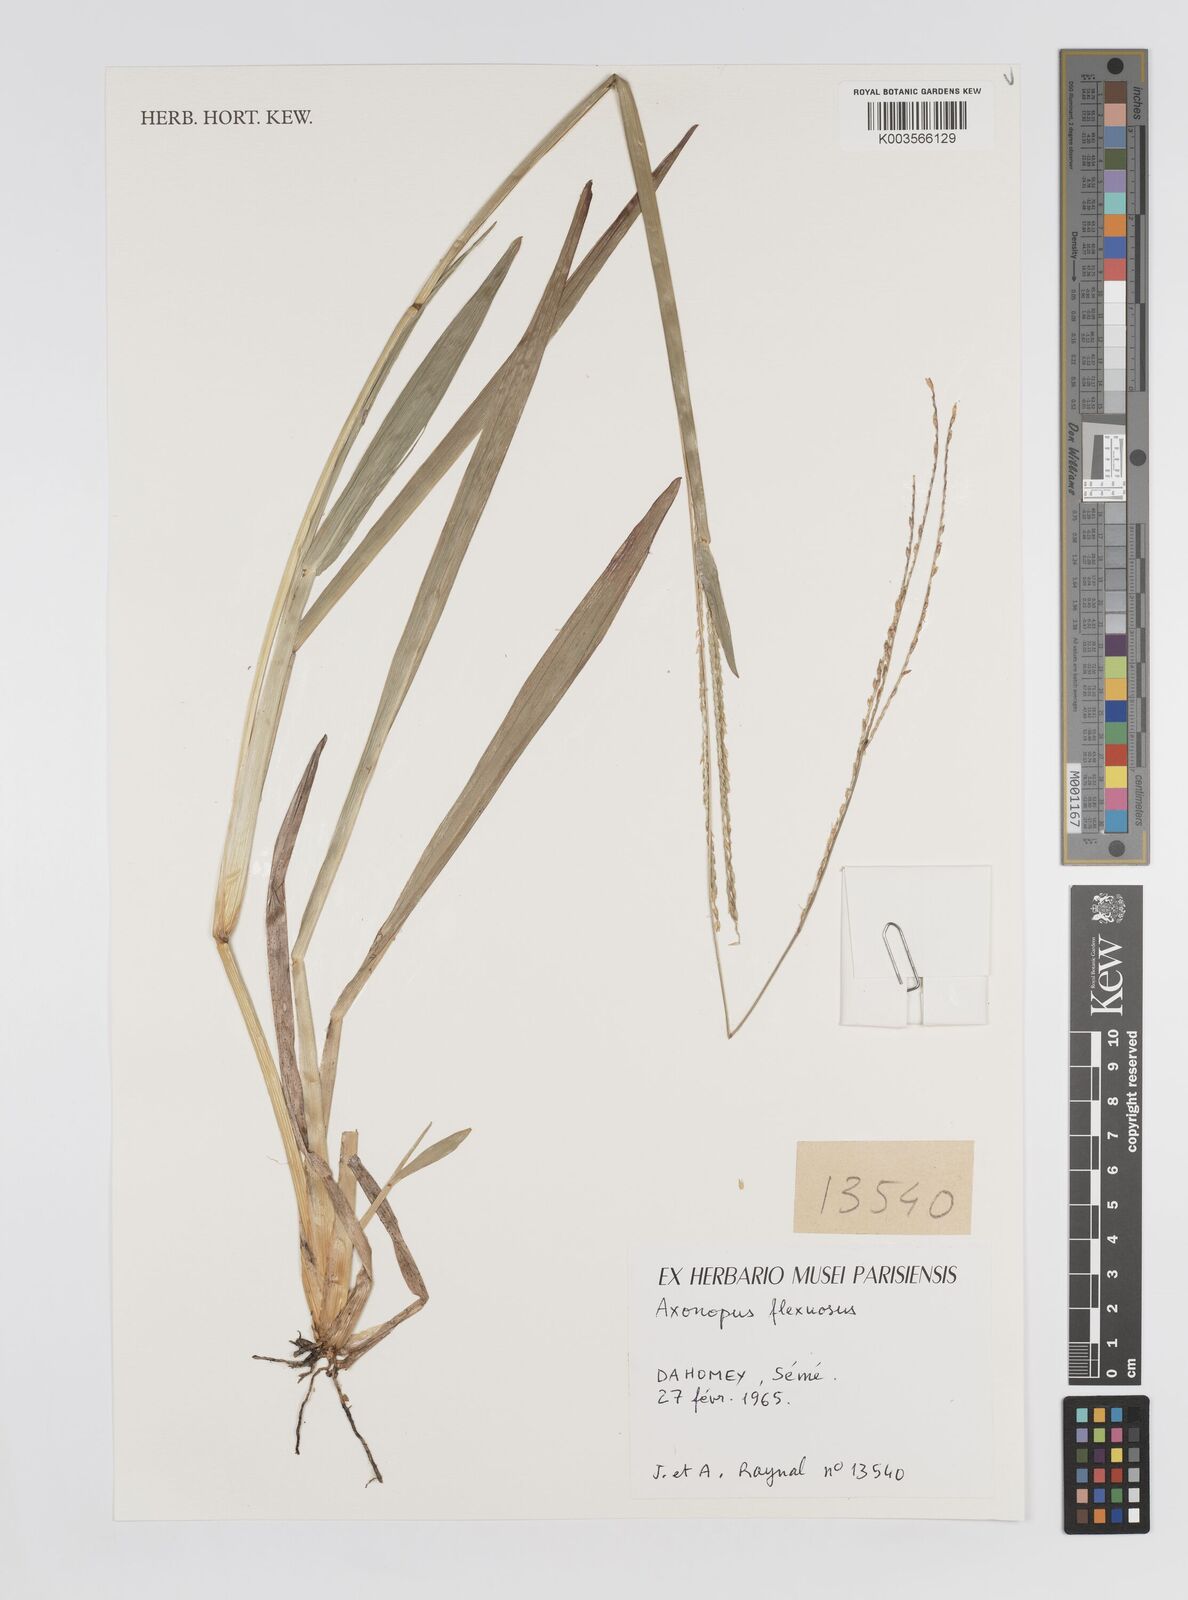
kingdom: Plantae
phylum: Tracheophyta
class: Liliopsida
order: Poales
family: Poaceae
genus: Axonopus
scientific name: Axonopus flexuosus
